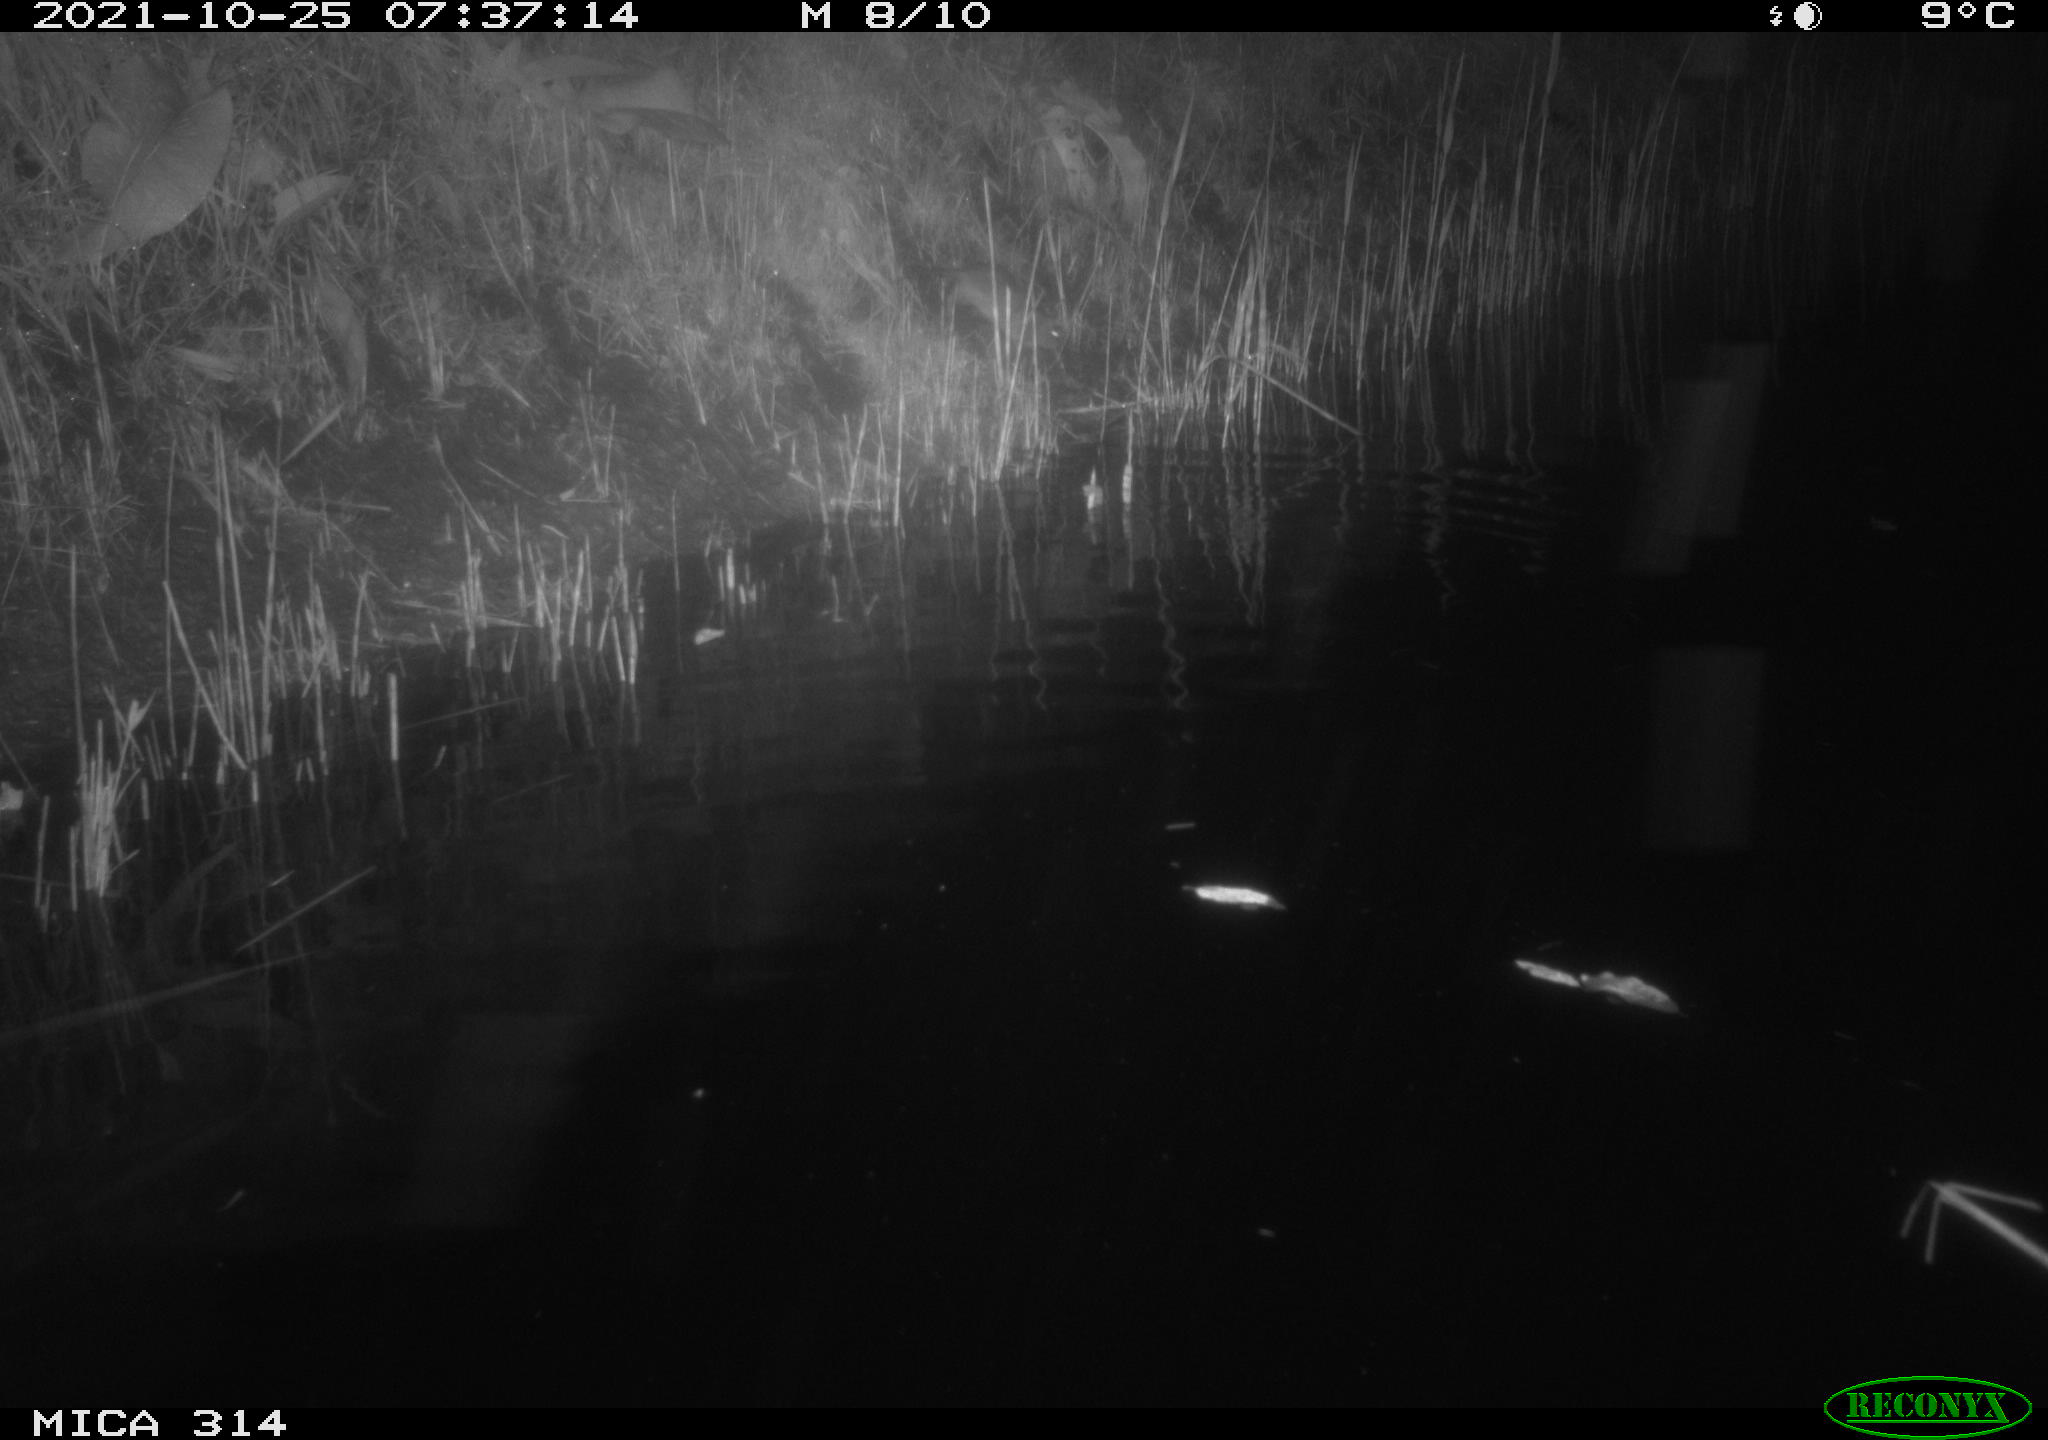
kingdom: Animalia
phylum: Chordata
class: Mammalia
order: Rodentia
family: Muridae
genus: Rattus
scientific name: Rattus norvegicus
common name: Brown rat
